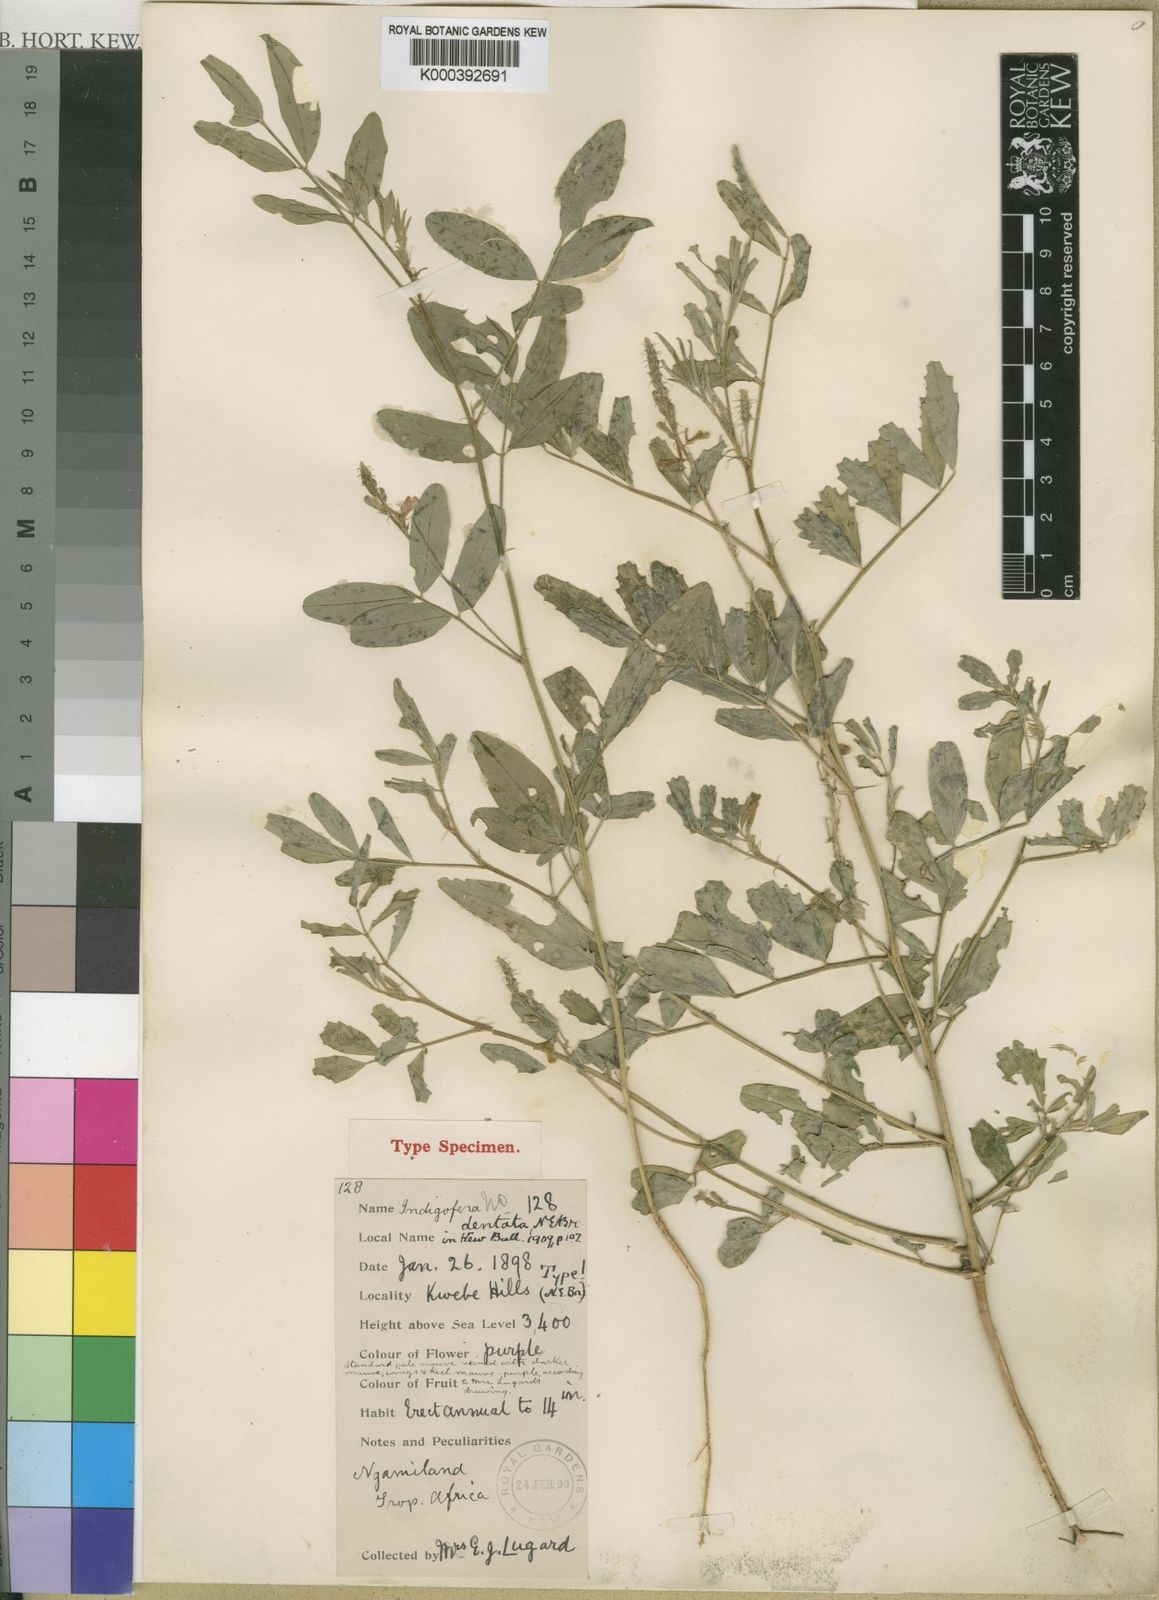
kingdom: Plantae
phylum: Tracheophyta
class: Magnoliopsida
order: Fabales
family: Fabaceae
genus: Cyamopsis
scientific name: Cyamopsis dentata
